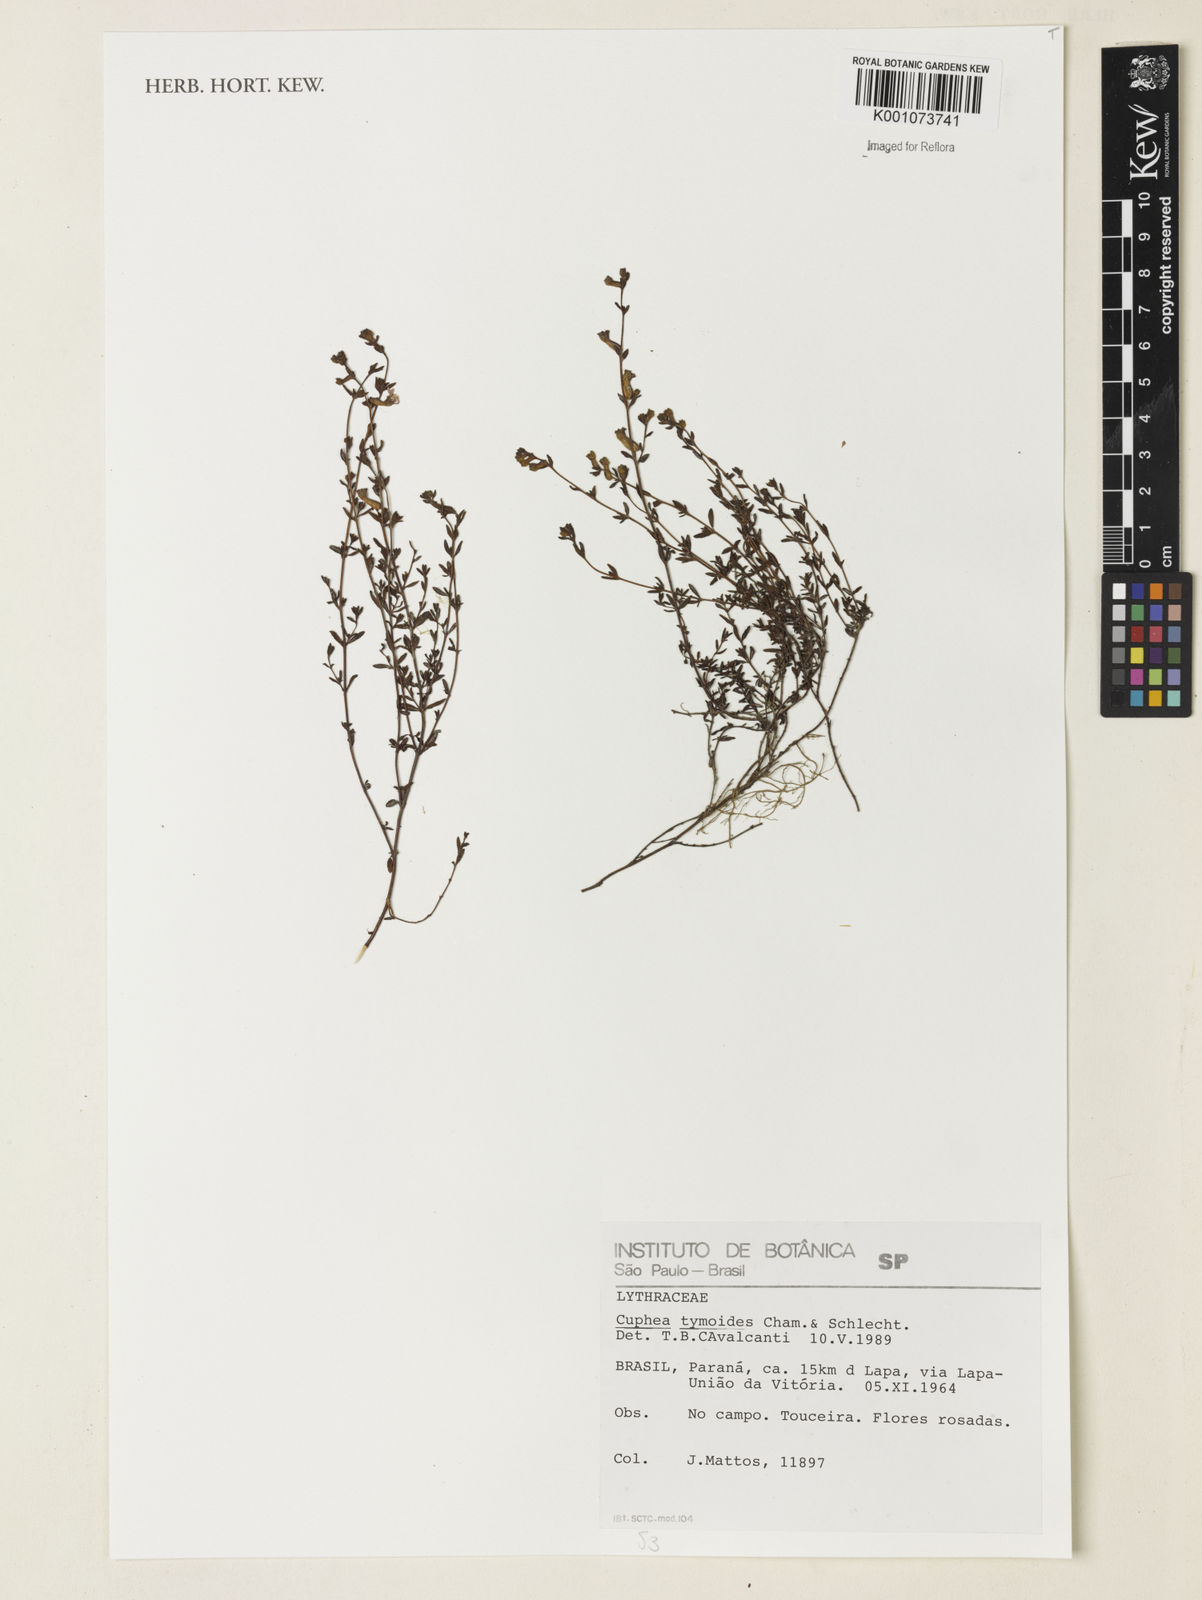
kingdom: Plantae
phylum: Tracheophyta
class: Magnoliopsida
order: Myrtales
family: Lythraceae
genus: Cuphea
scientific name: Cuphea thymoides
